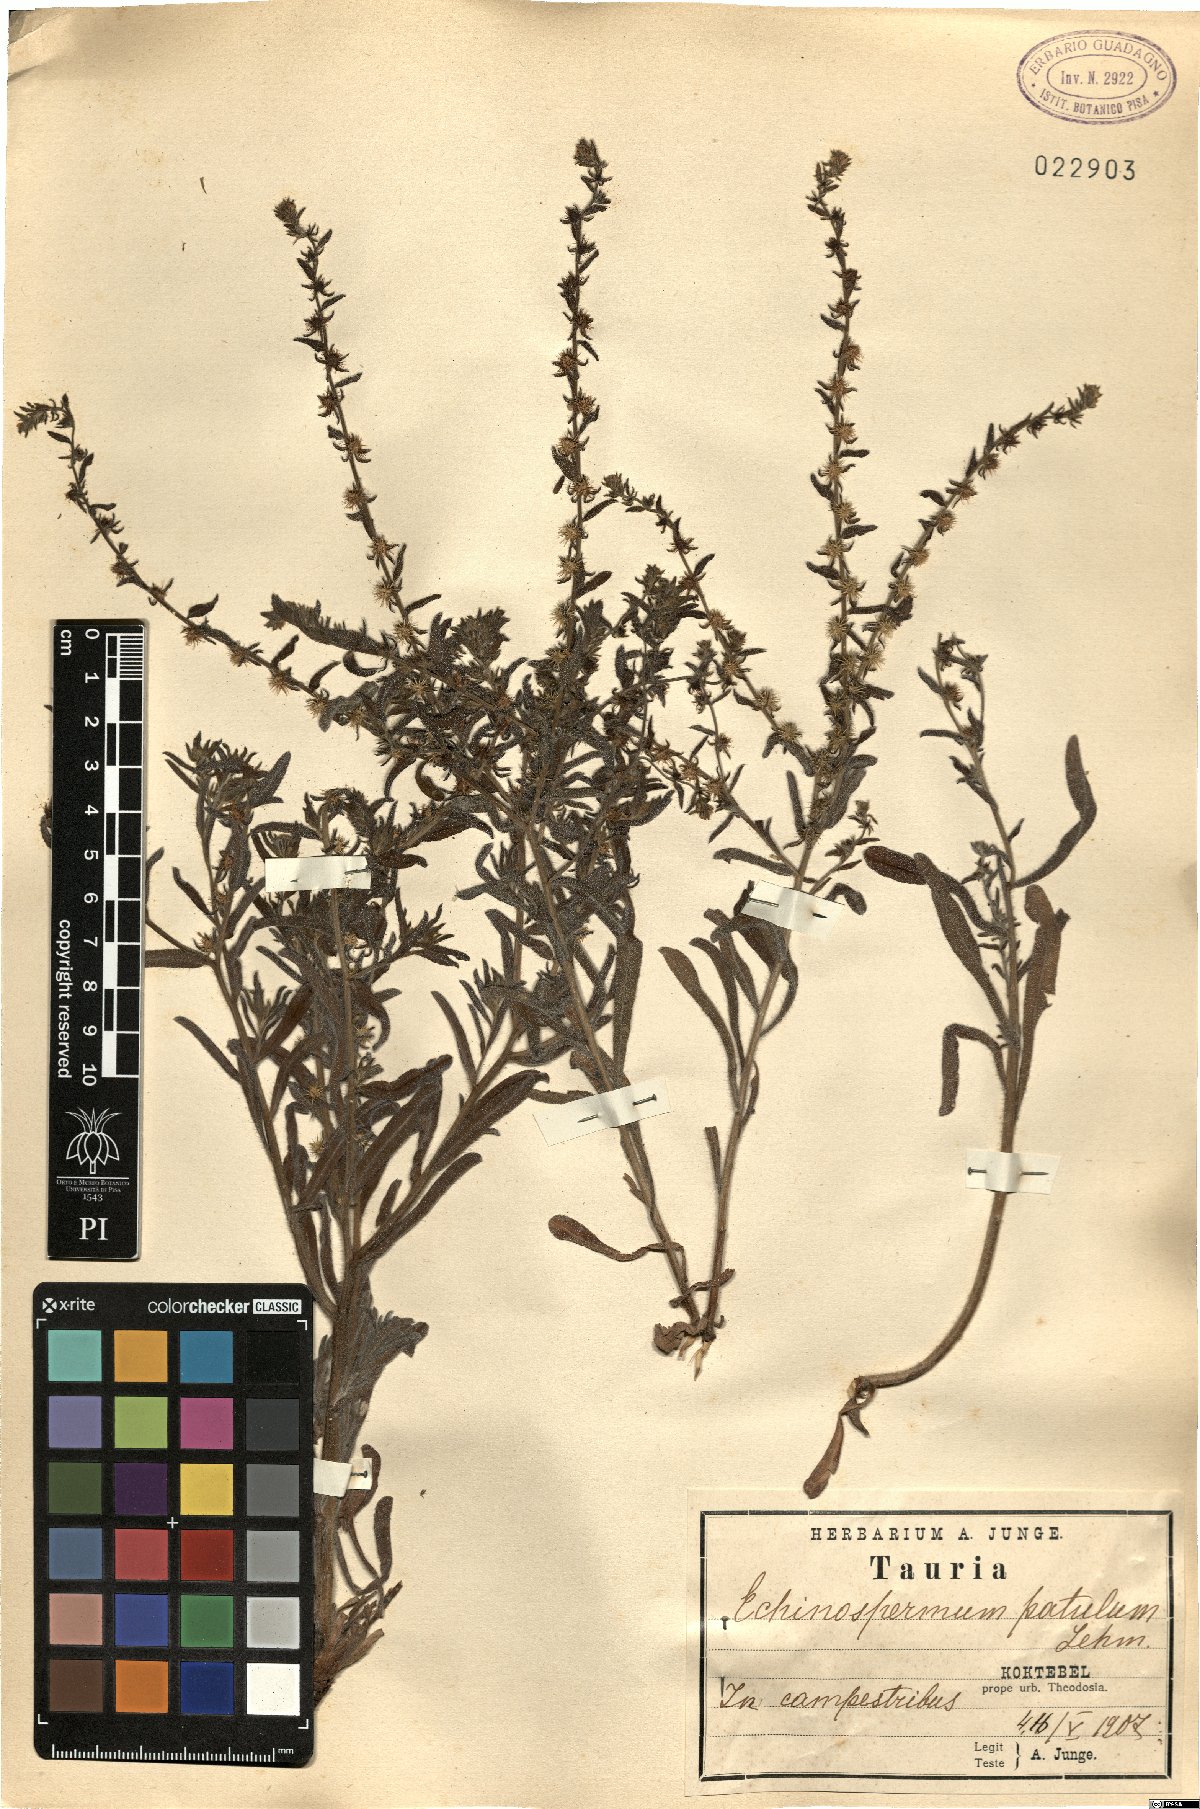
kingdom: Plantae
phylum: Tracheophyta
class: Magnoliopsida
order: Boraginales
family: Boraginaceae
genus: Lappula
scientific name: Lappula patula
